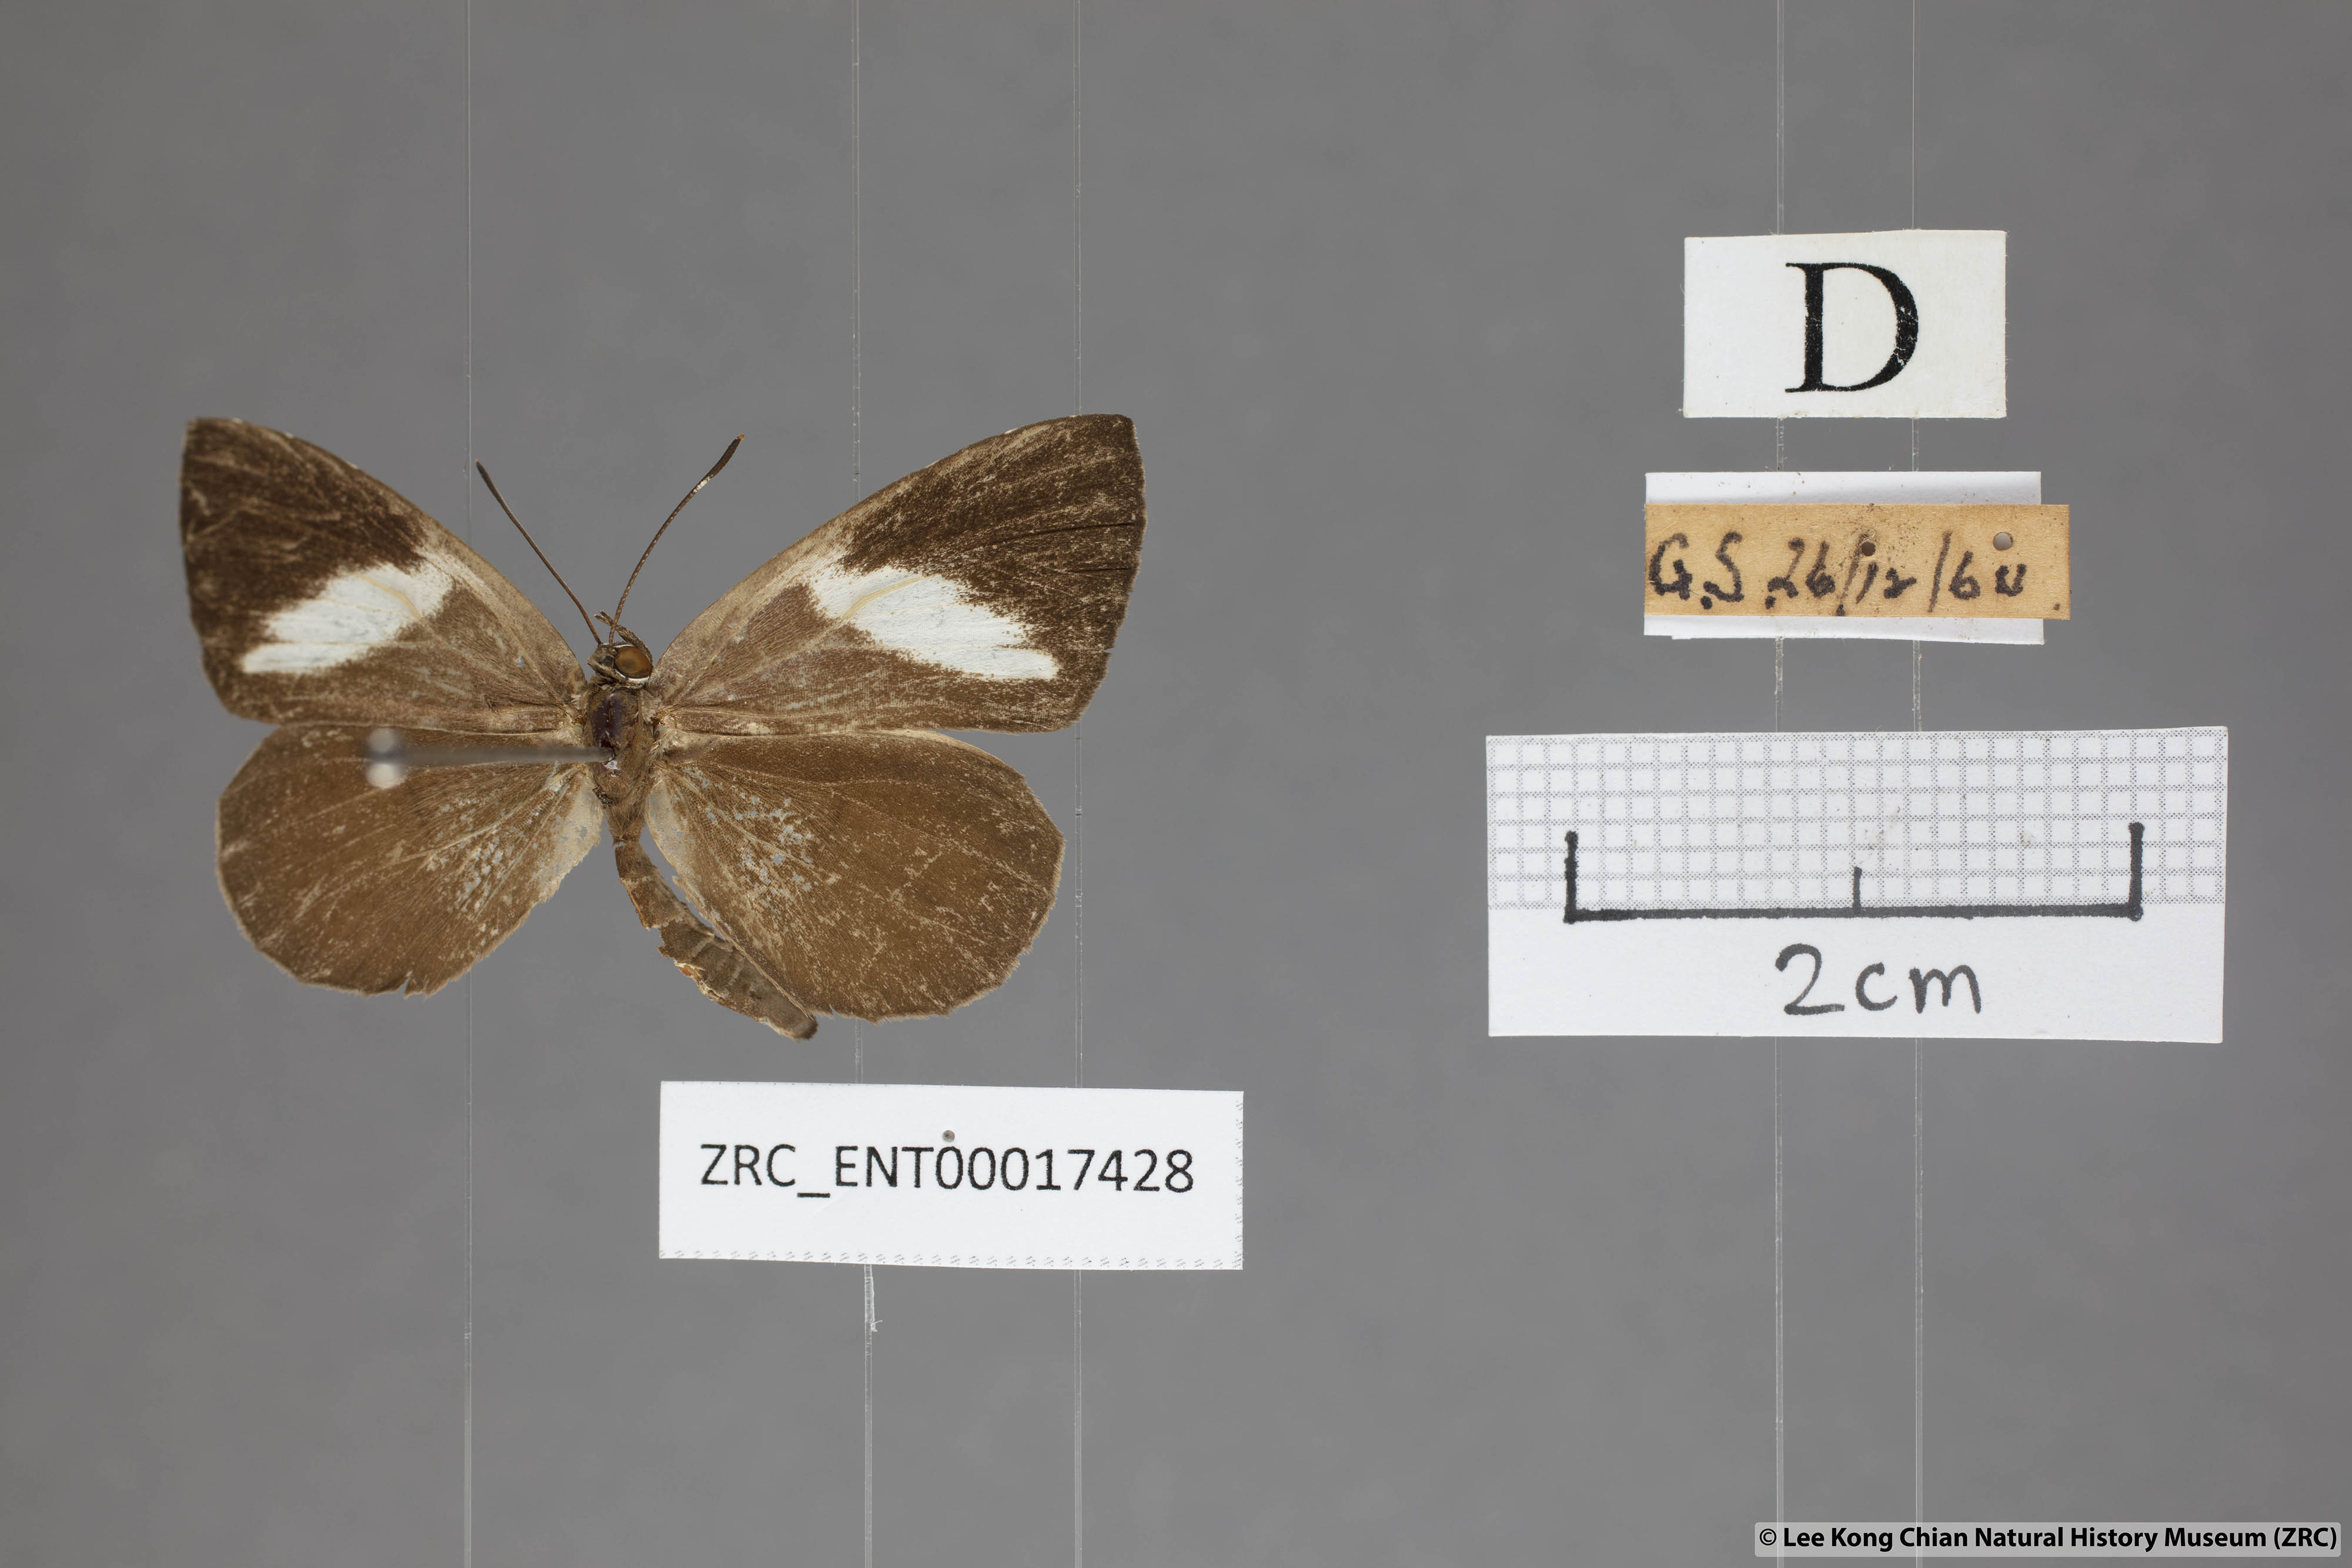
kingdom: Animalia
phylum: Arthropoda
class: Insecta
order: Lepidoptera
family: Lycaenidae
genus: Miletus
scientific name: Miletus biggsii
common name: Bigg's brownie
